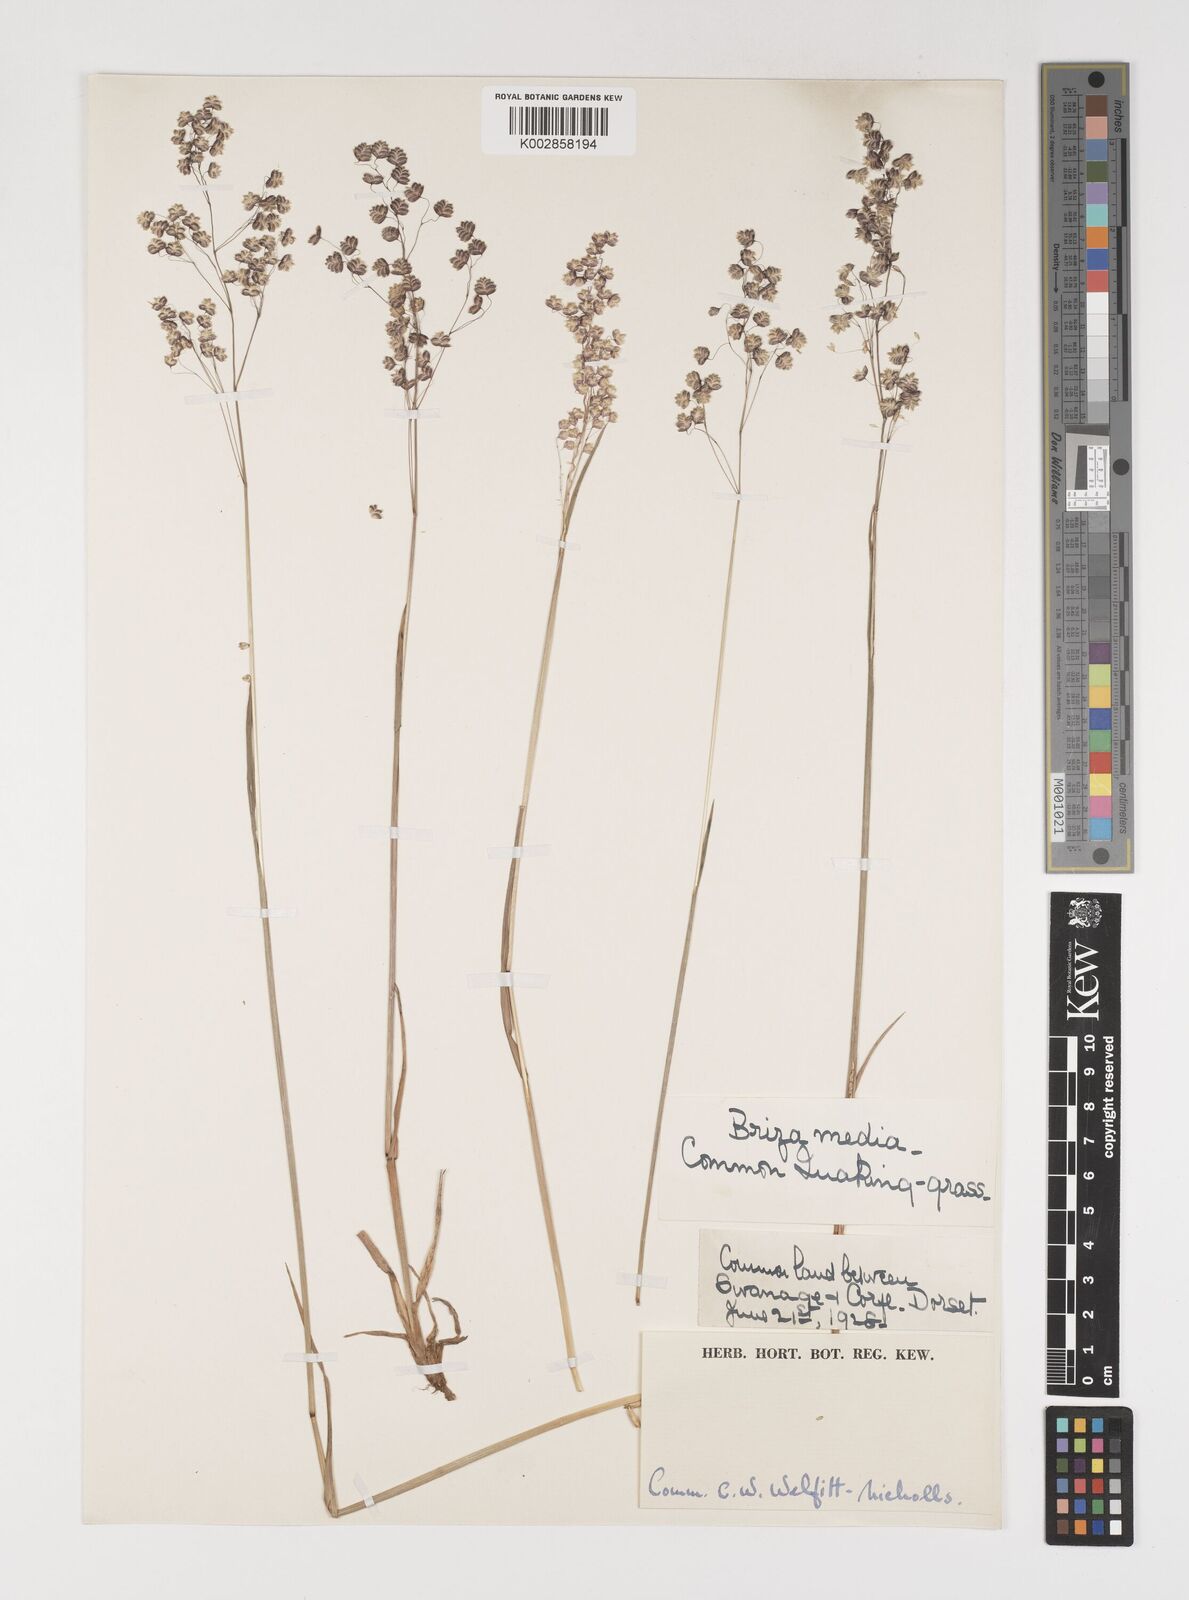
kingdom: Plantae
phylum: Tracheophyta
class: Liliopsida
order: Poales
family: Poaceae
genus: Briza
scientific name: Briza media
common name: Quaking grass
